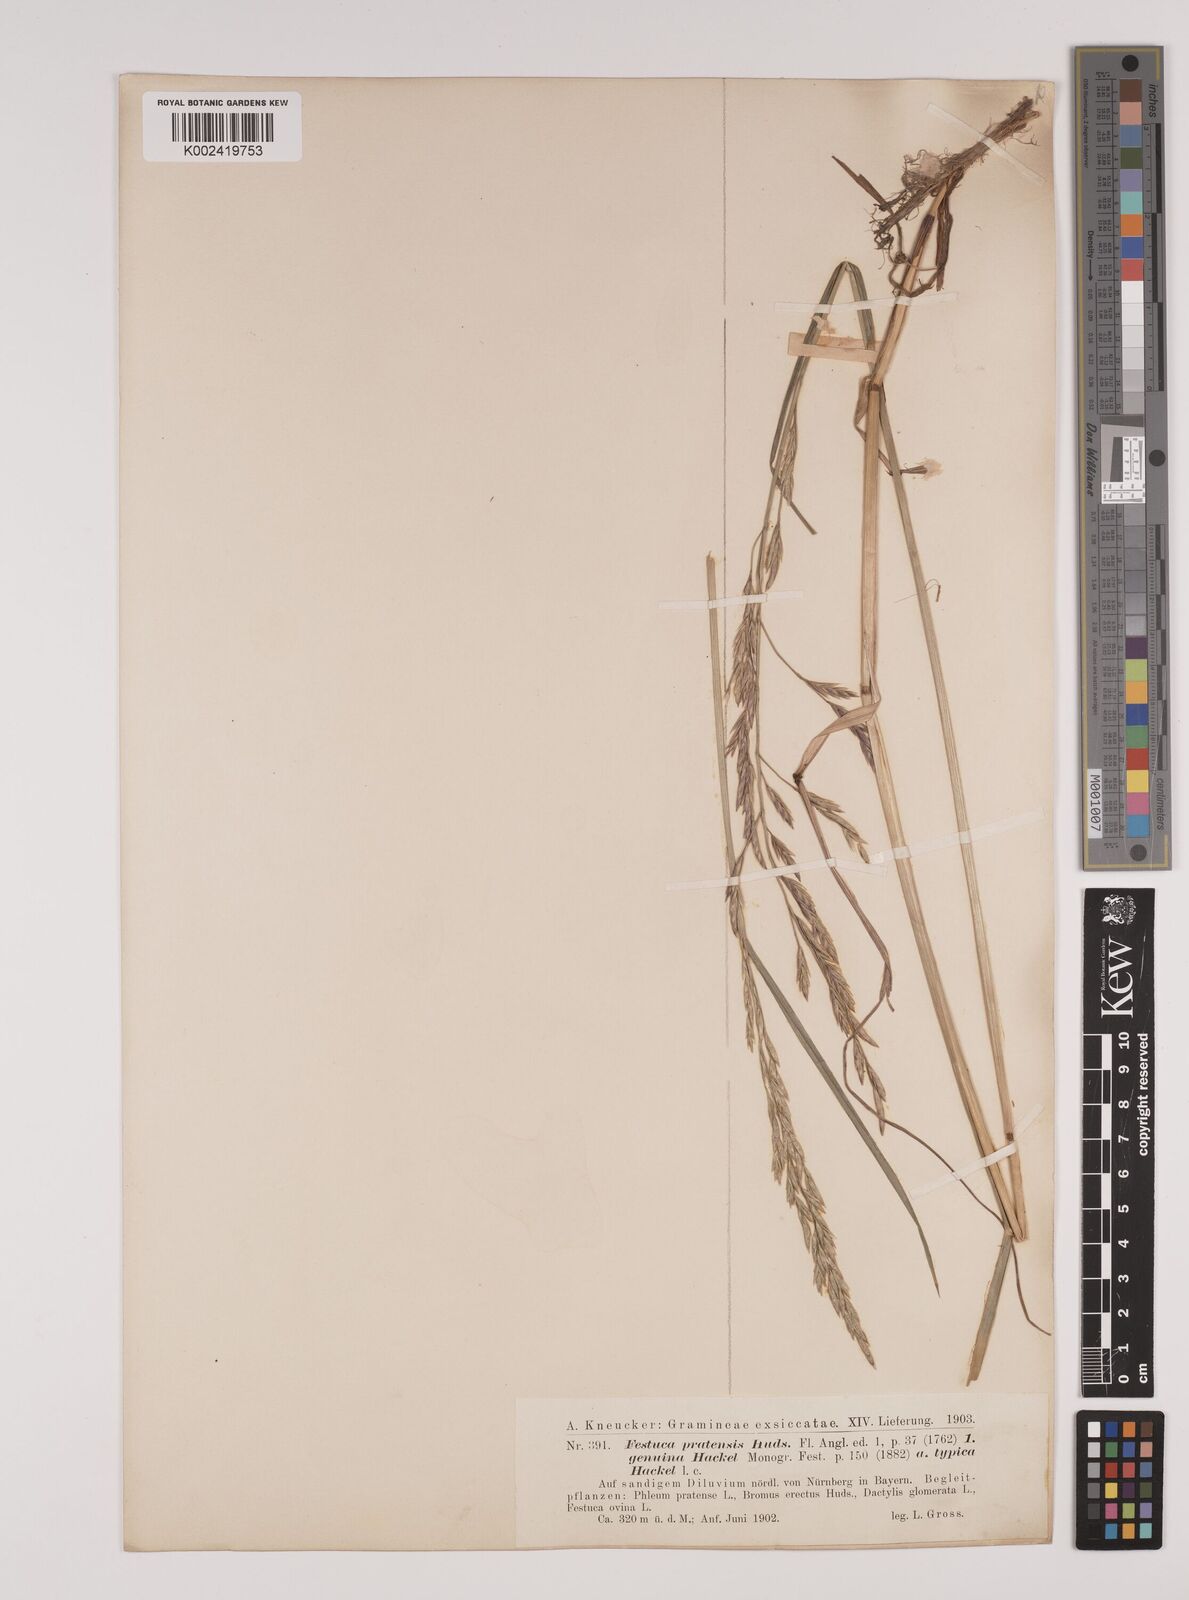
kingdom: Plantae
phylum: Tracheophyta
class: Liliopsida
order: Poales
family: Poaceae
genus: Lolium
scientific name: Lolium pratense
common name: Dover grass
